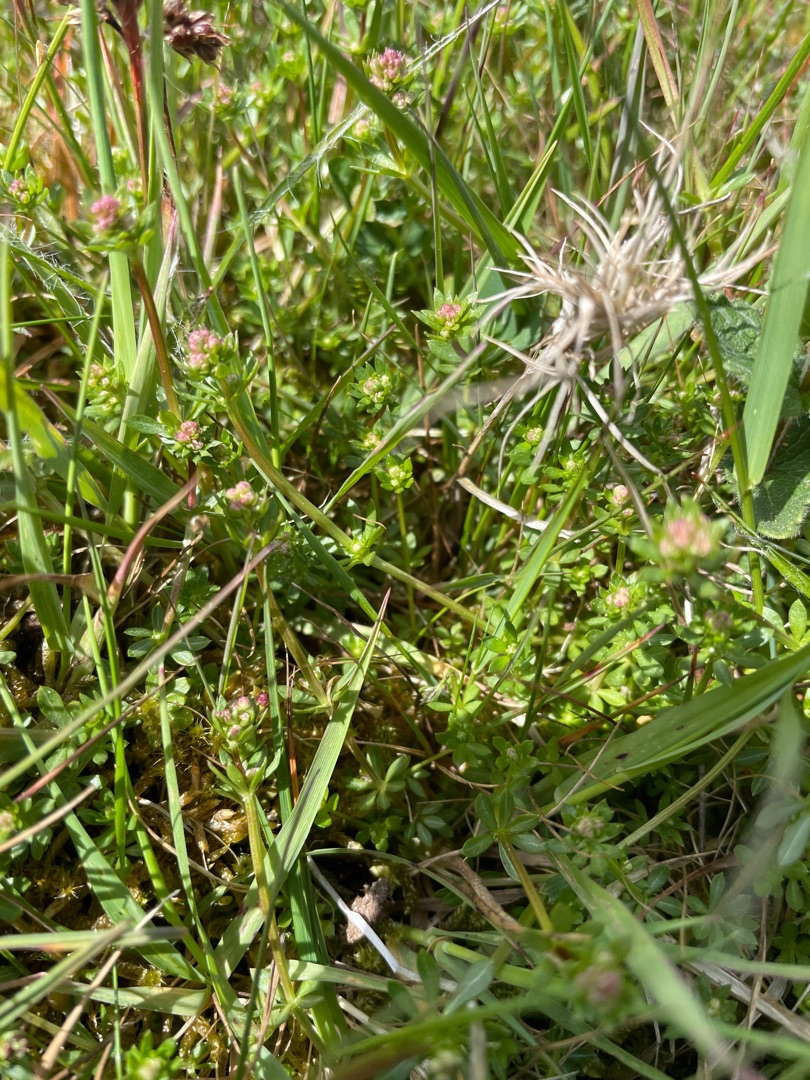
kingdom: Plantae
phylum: Tracheophyta
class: Magnoliopsida
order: Gentianales
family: Rubiaceae
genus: Galium
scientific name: Galium saxatile
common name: Lyng-snerre
